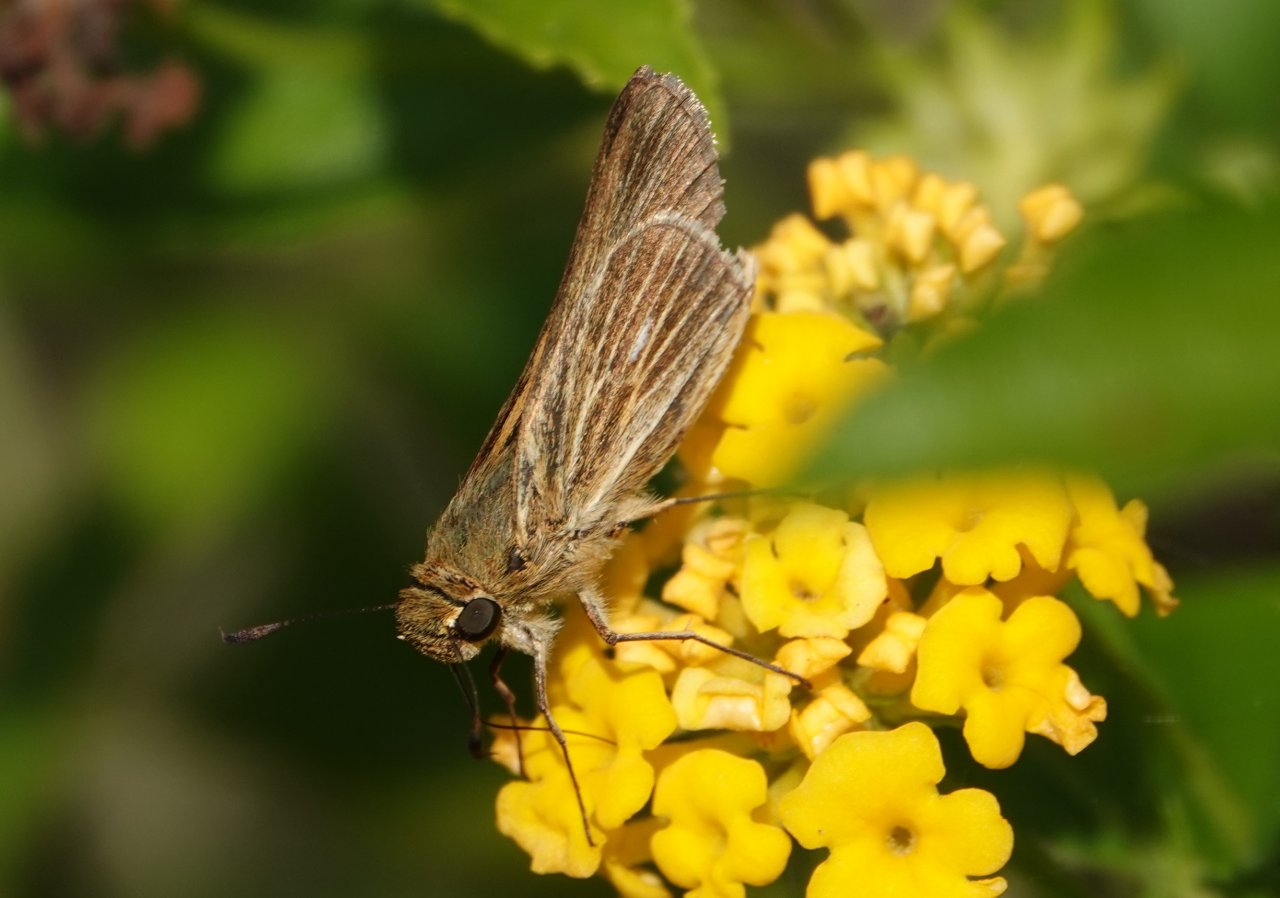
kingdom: Animalia
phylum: Arthropoda
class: Insecta
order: Lepidoptera
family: Hesperiidae
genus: Panoquina
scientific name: Panoquina panoquin
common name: Salt Marsh Skipper
